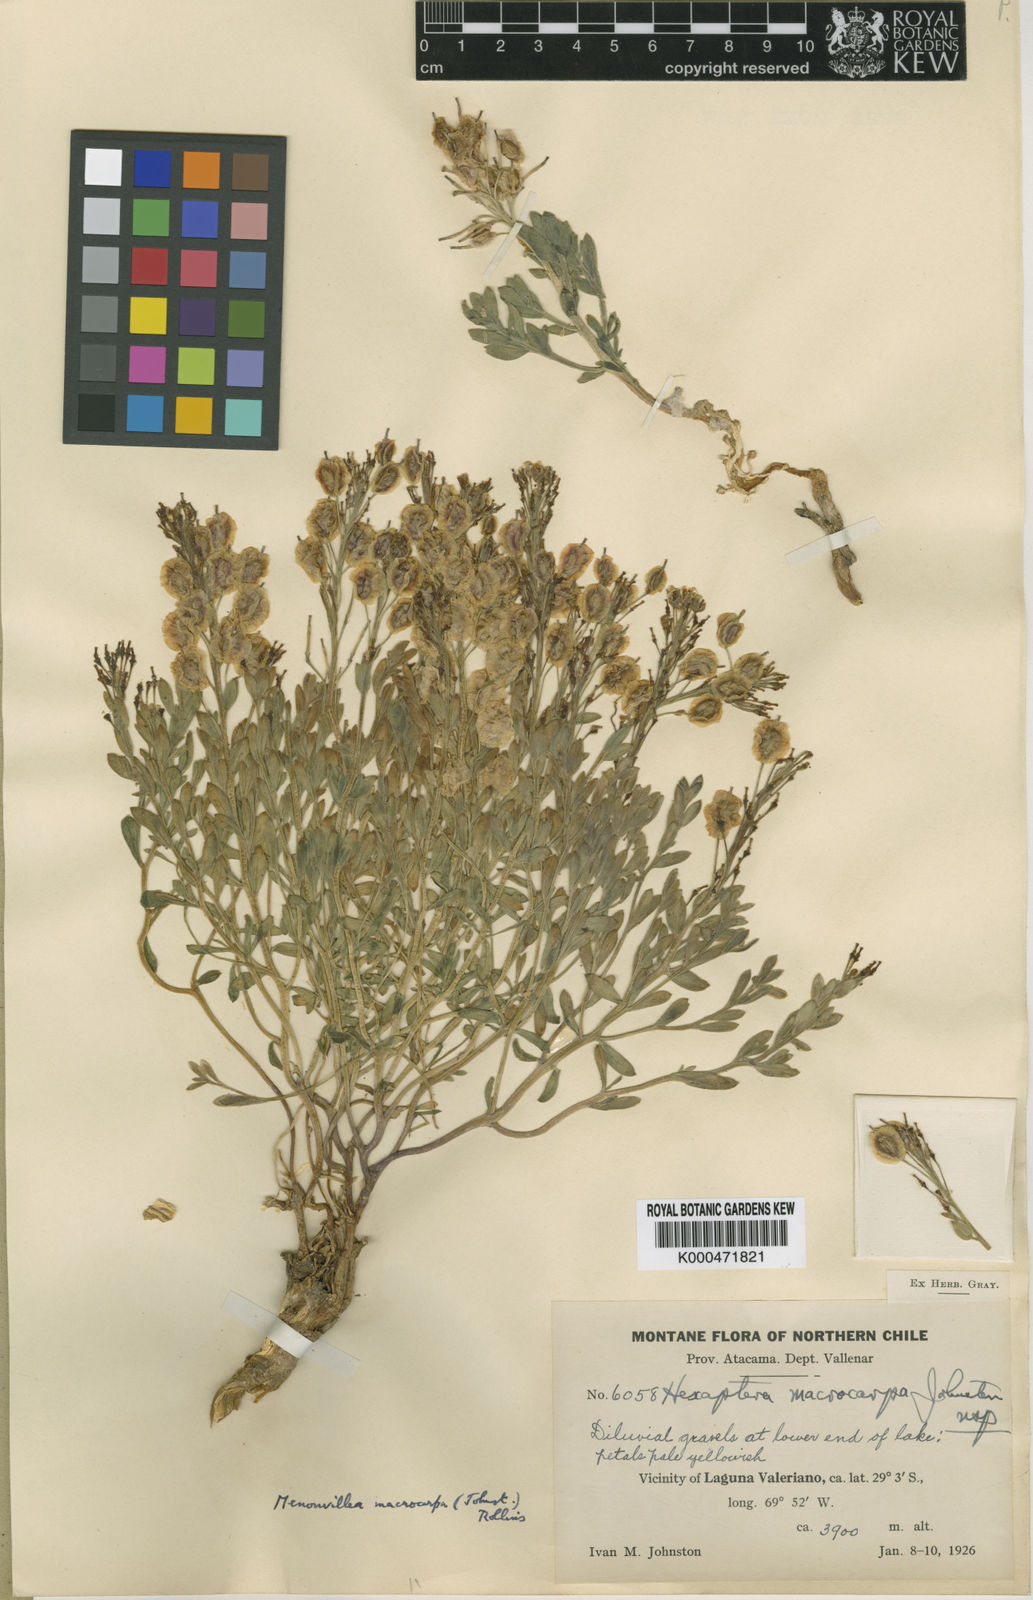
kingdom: Plantae
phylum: Tracheophyta
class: Magnoliopsida
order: Brassicales
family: Brassicaceae
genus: Menonvillea
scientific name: Menonvillea macrocarpa
